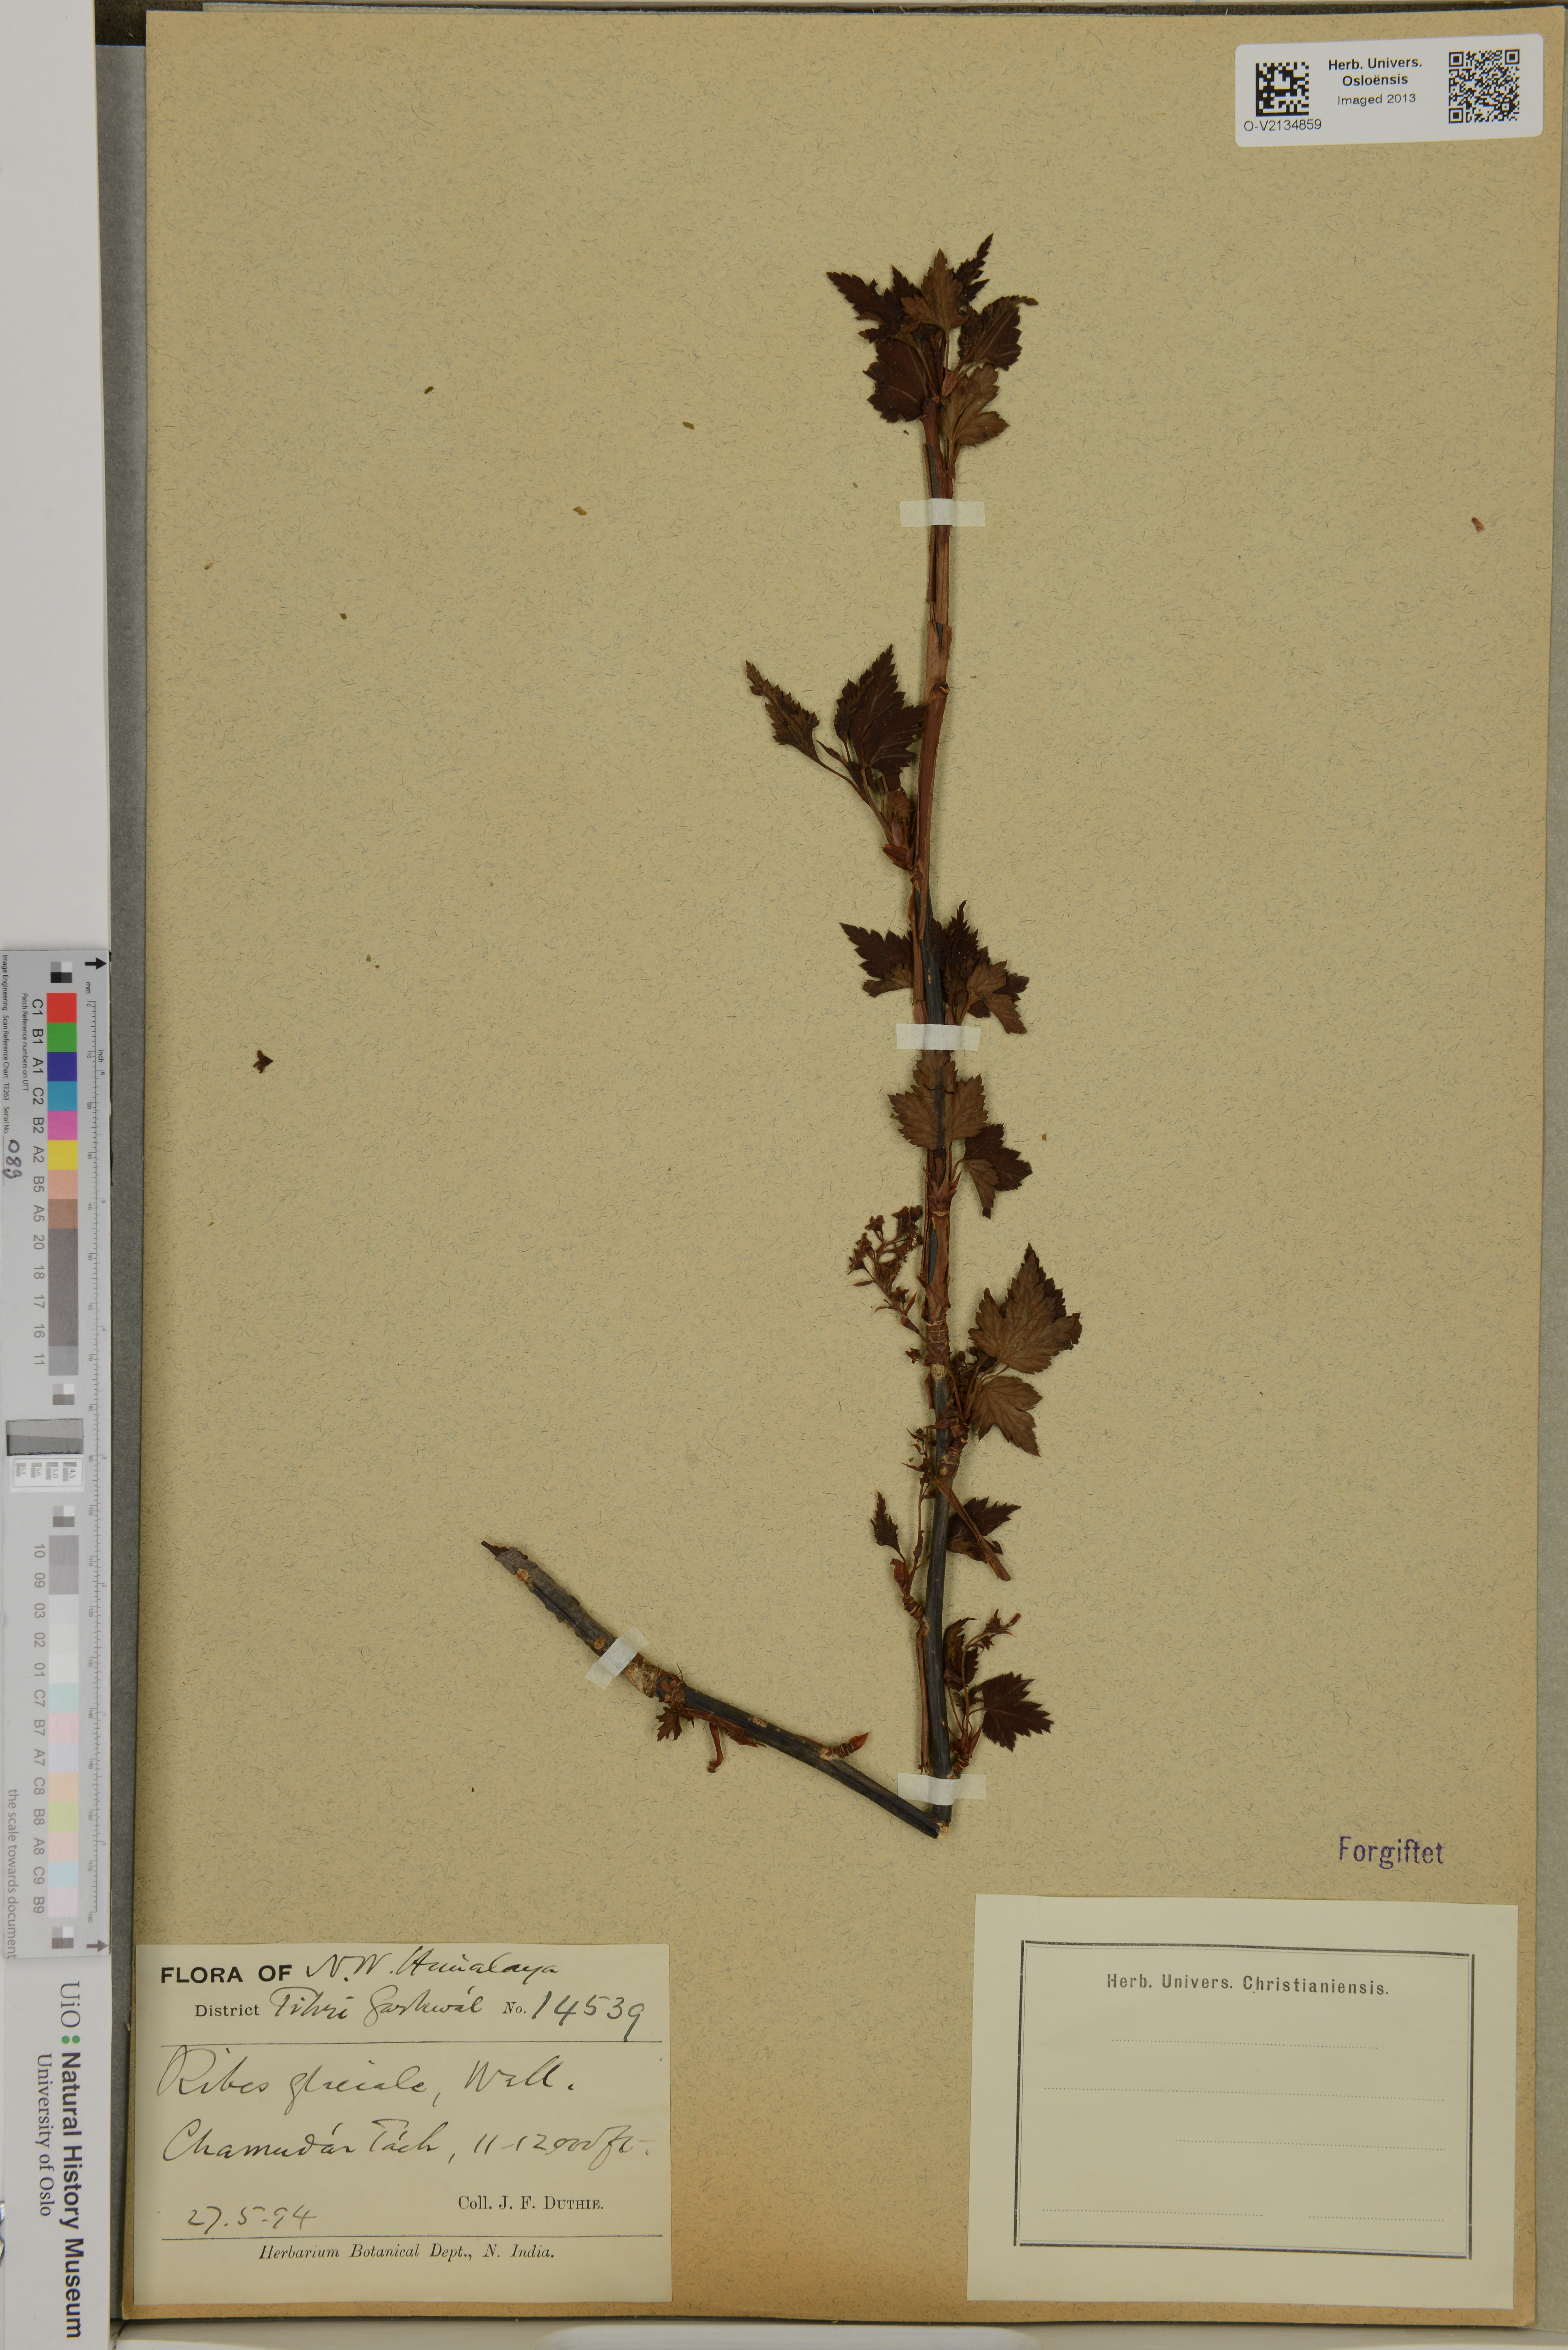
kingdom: Plantae
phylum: Tracheophyta
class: Magnoliopsida
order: Saxifragales
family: Grossulariaceae
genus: Ribes
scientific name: Ribes glaciale
